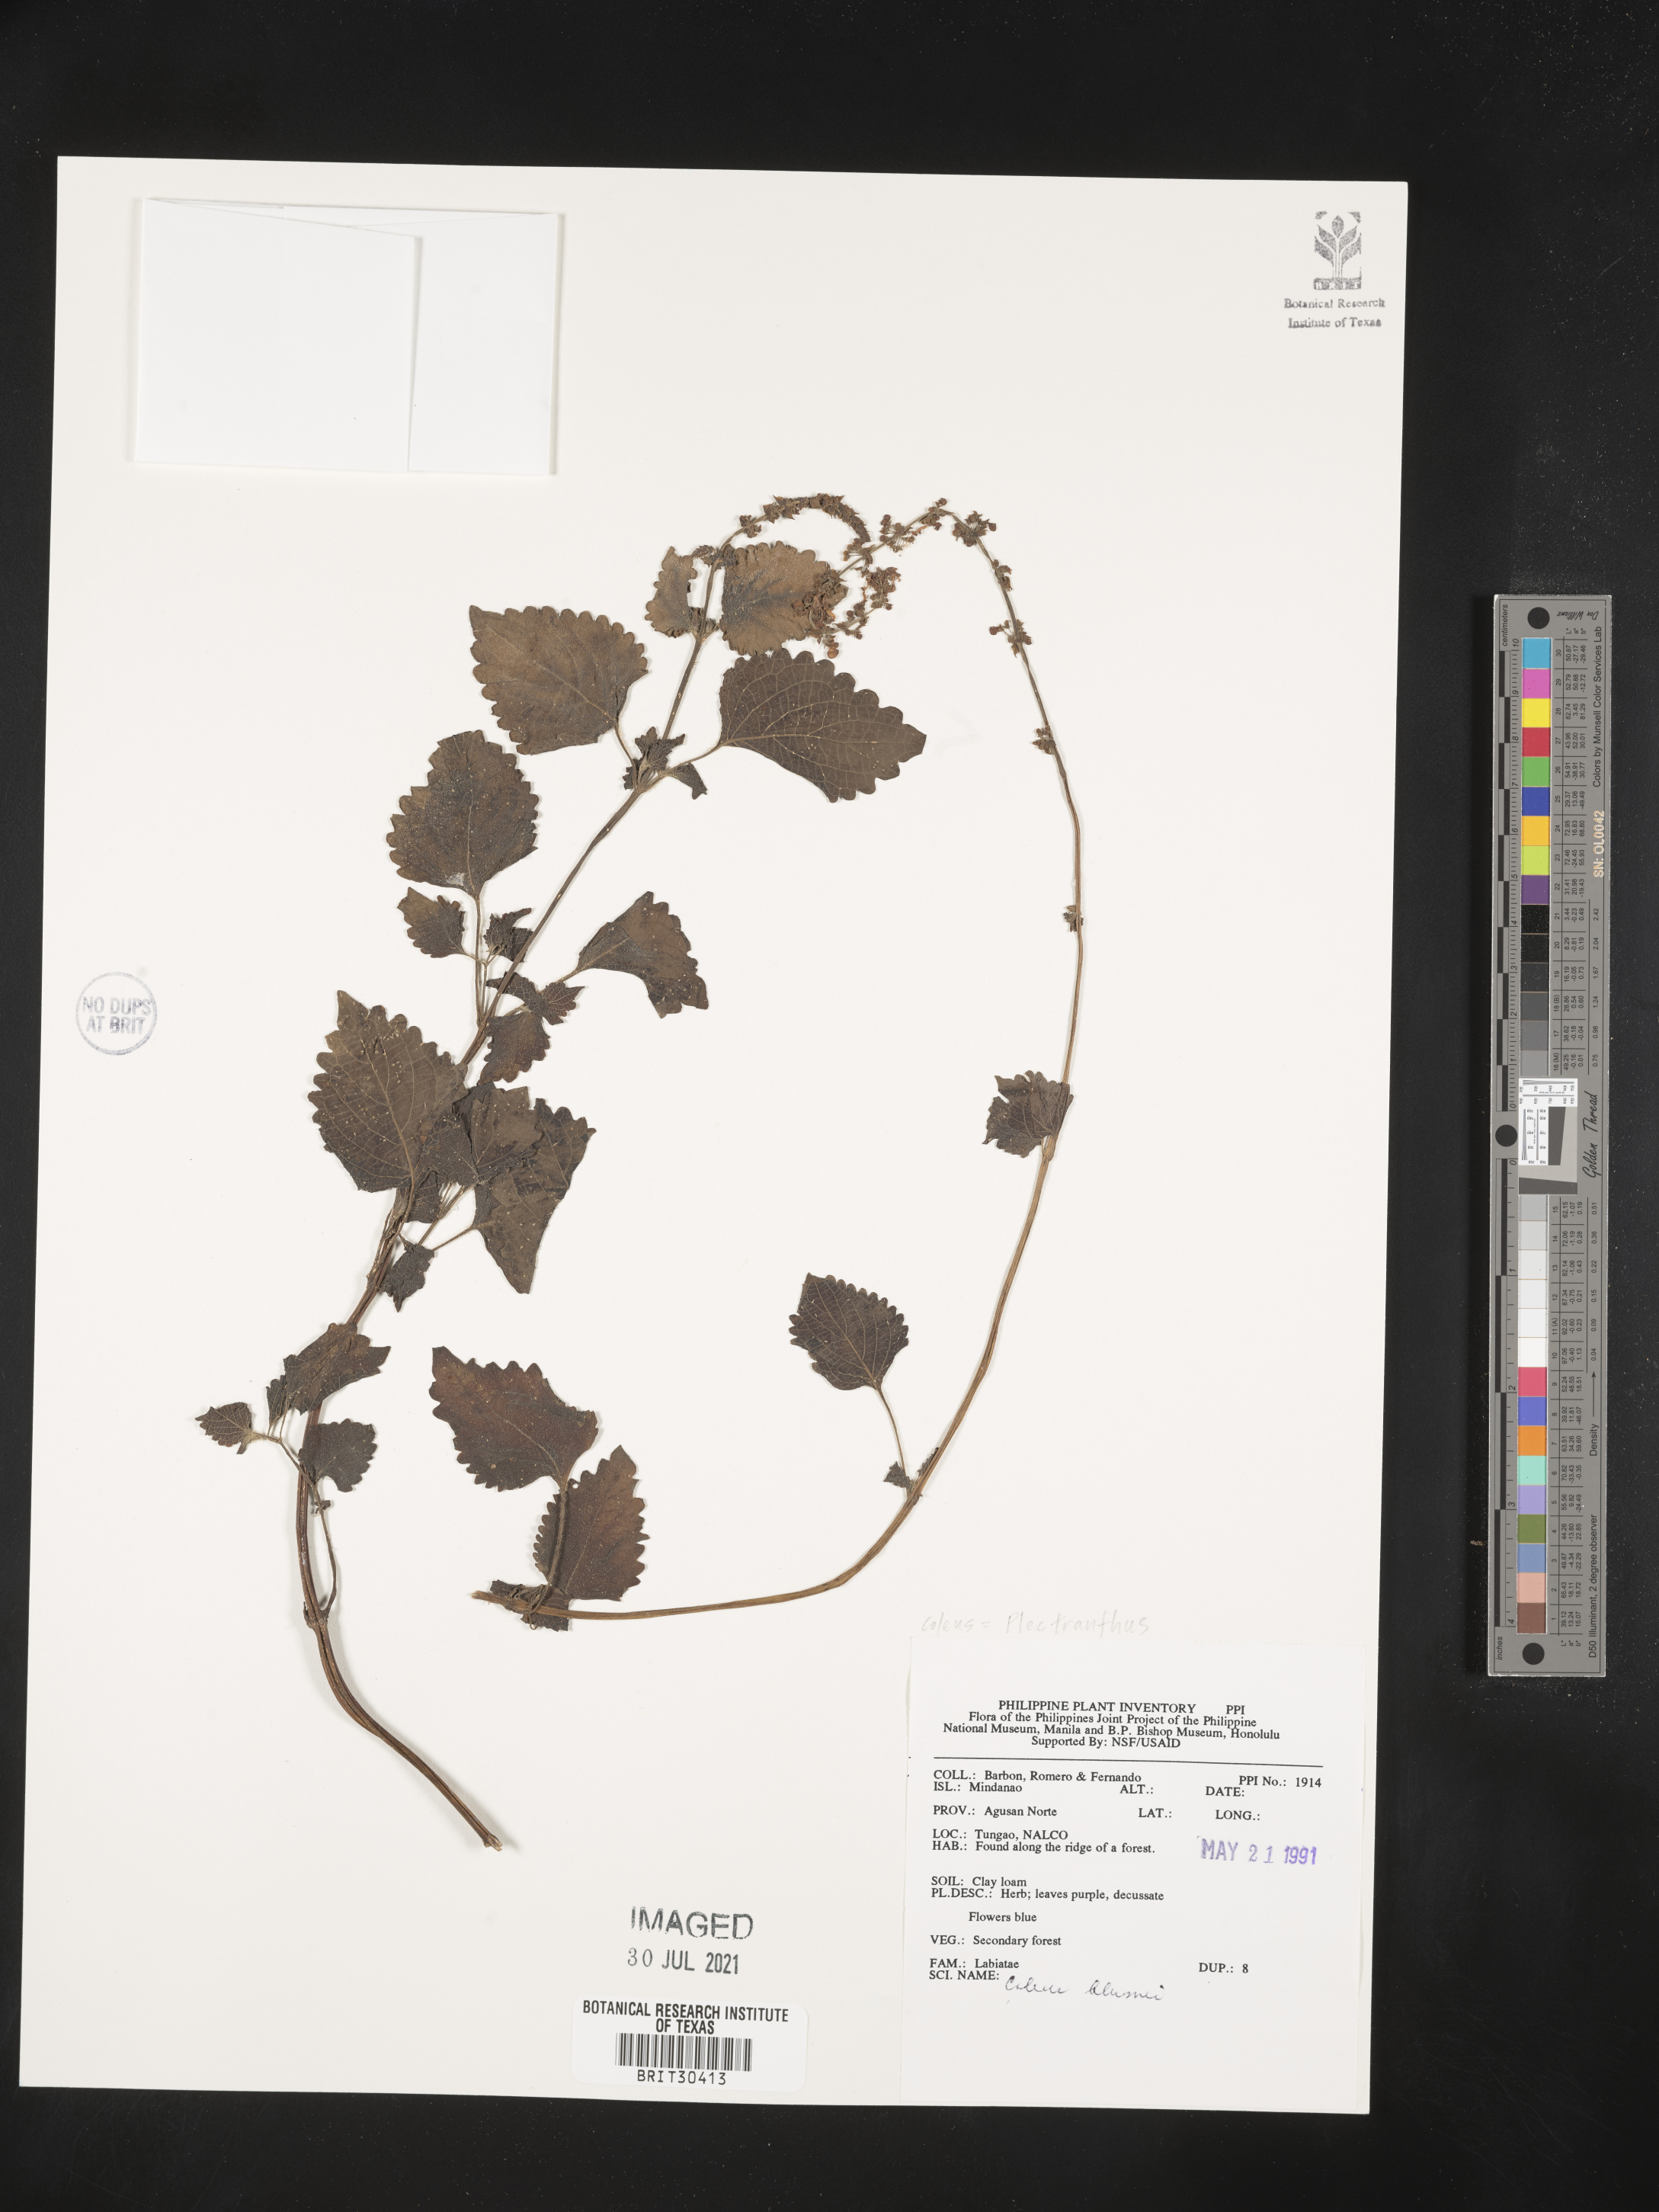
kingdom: Plantae
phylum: Tracheophyta
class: Magnoliopsida
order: Lamiales
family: Lamiaceae
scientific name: Lamiaceae
